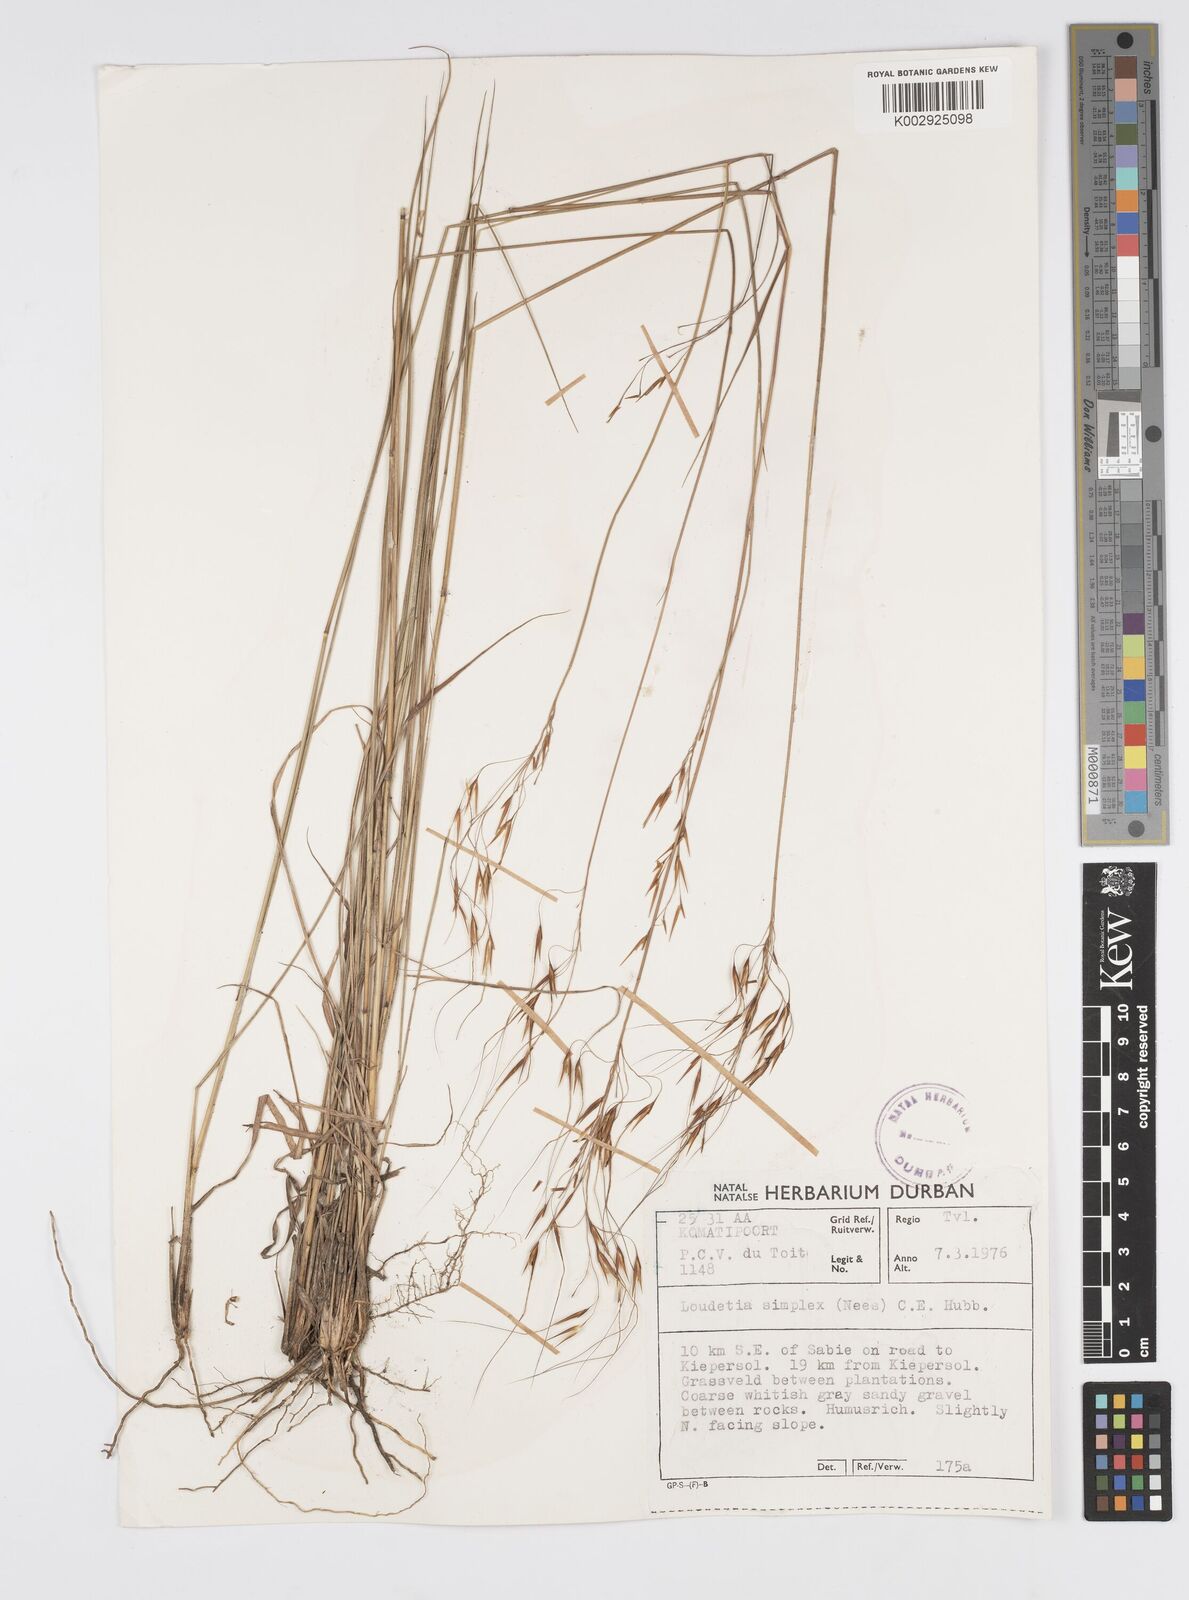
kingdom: Plantae
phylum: Tracheophyta
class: Liliopsida
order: Poales
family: Poaceae
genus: Loudetia
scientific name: Loudetia simplex
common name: Common russet grass
